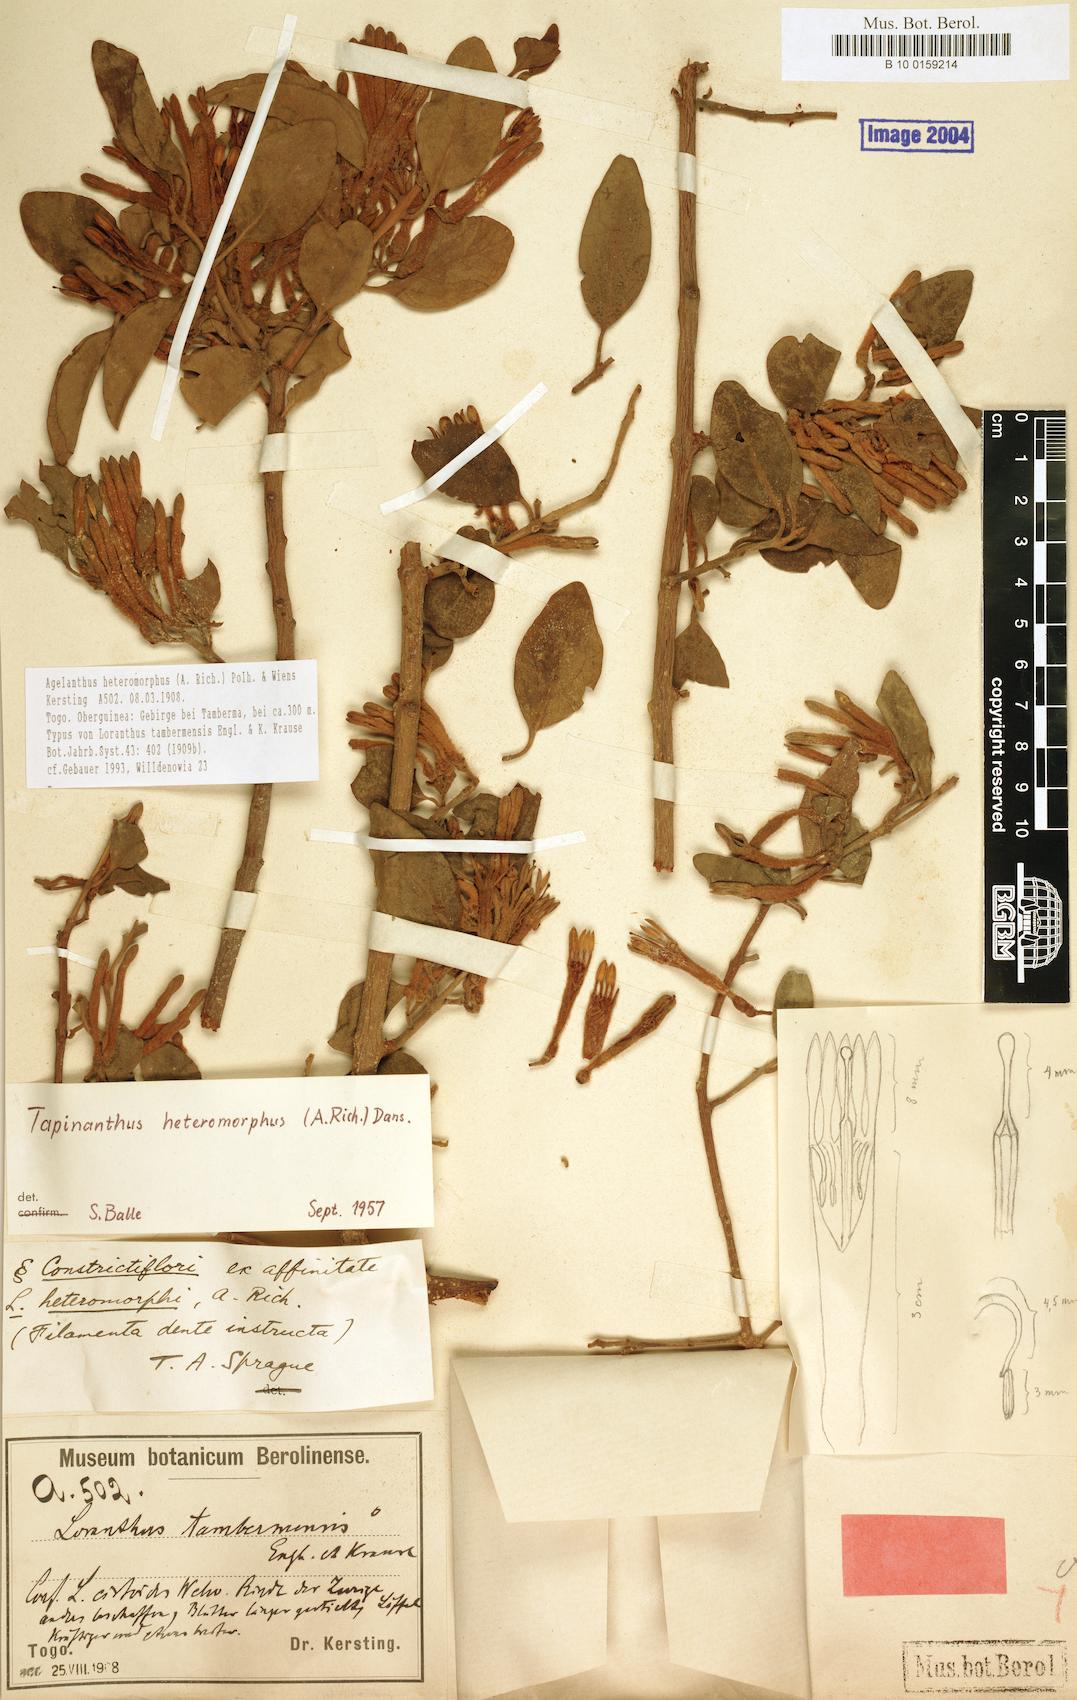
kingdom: Plantae
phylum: Tracheophyta
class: Magnoliopsida
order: Santalales
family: Loranthaceae
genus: Agelanthus
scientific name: Agelanthus heteromorphus
